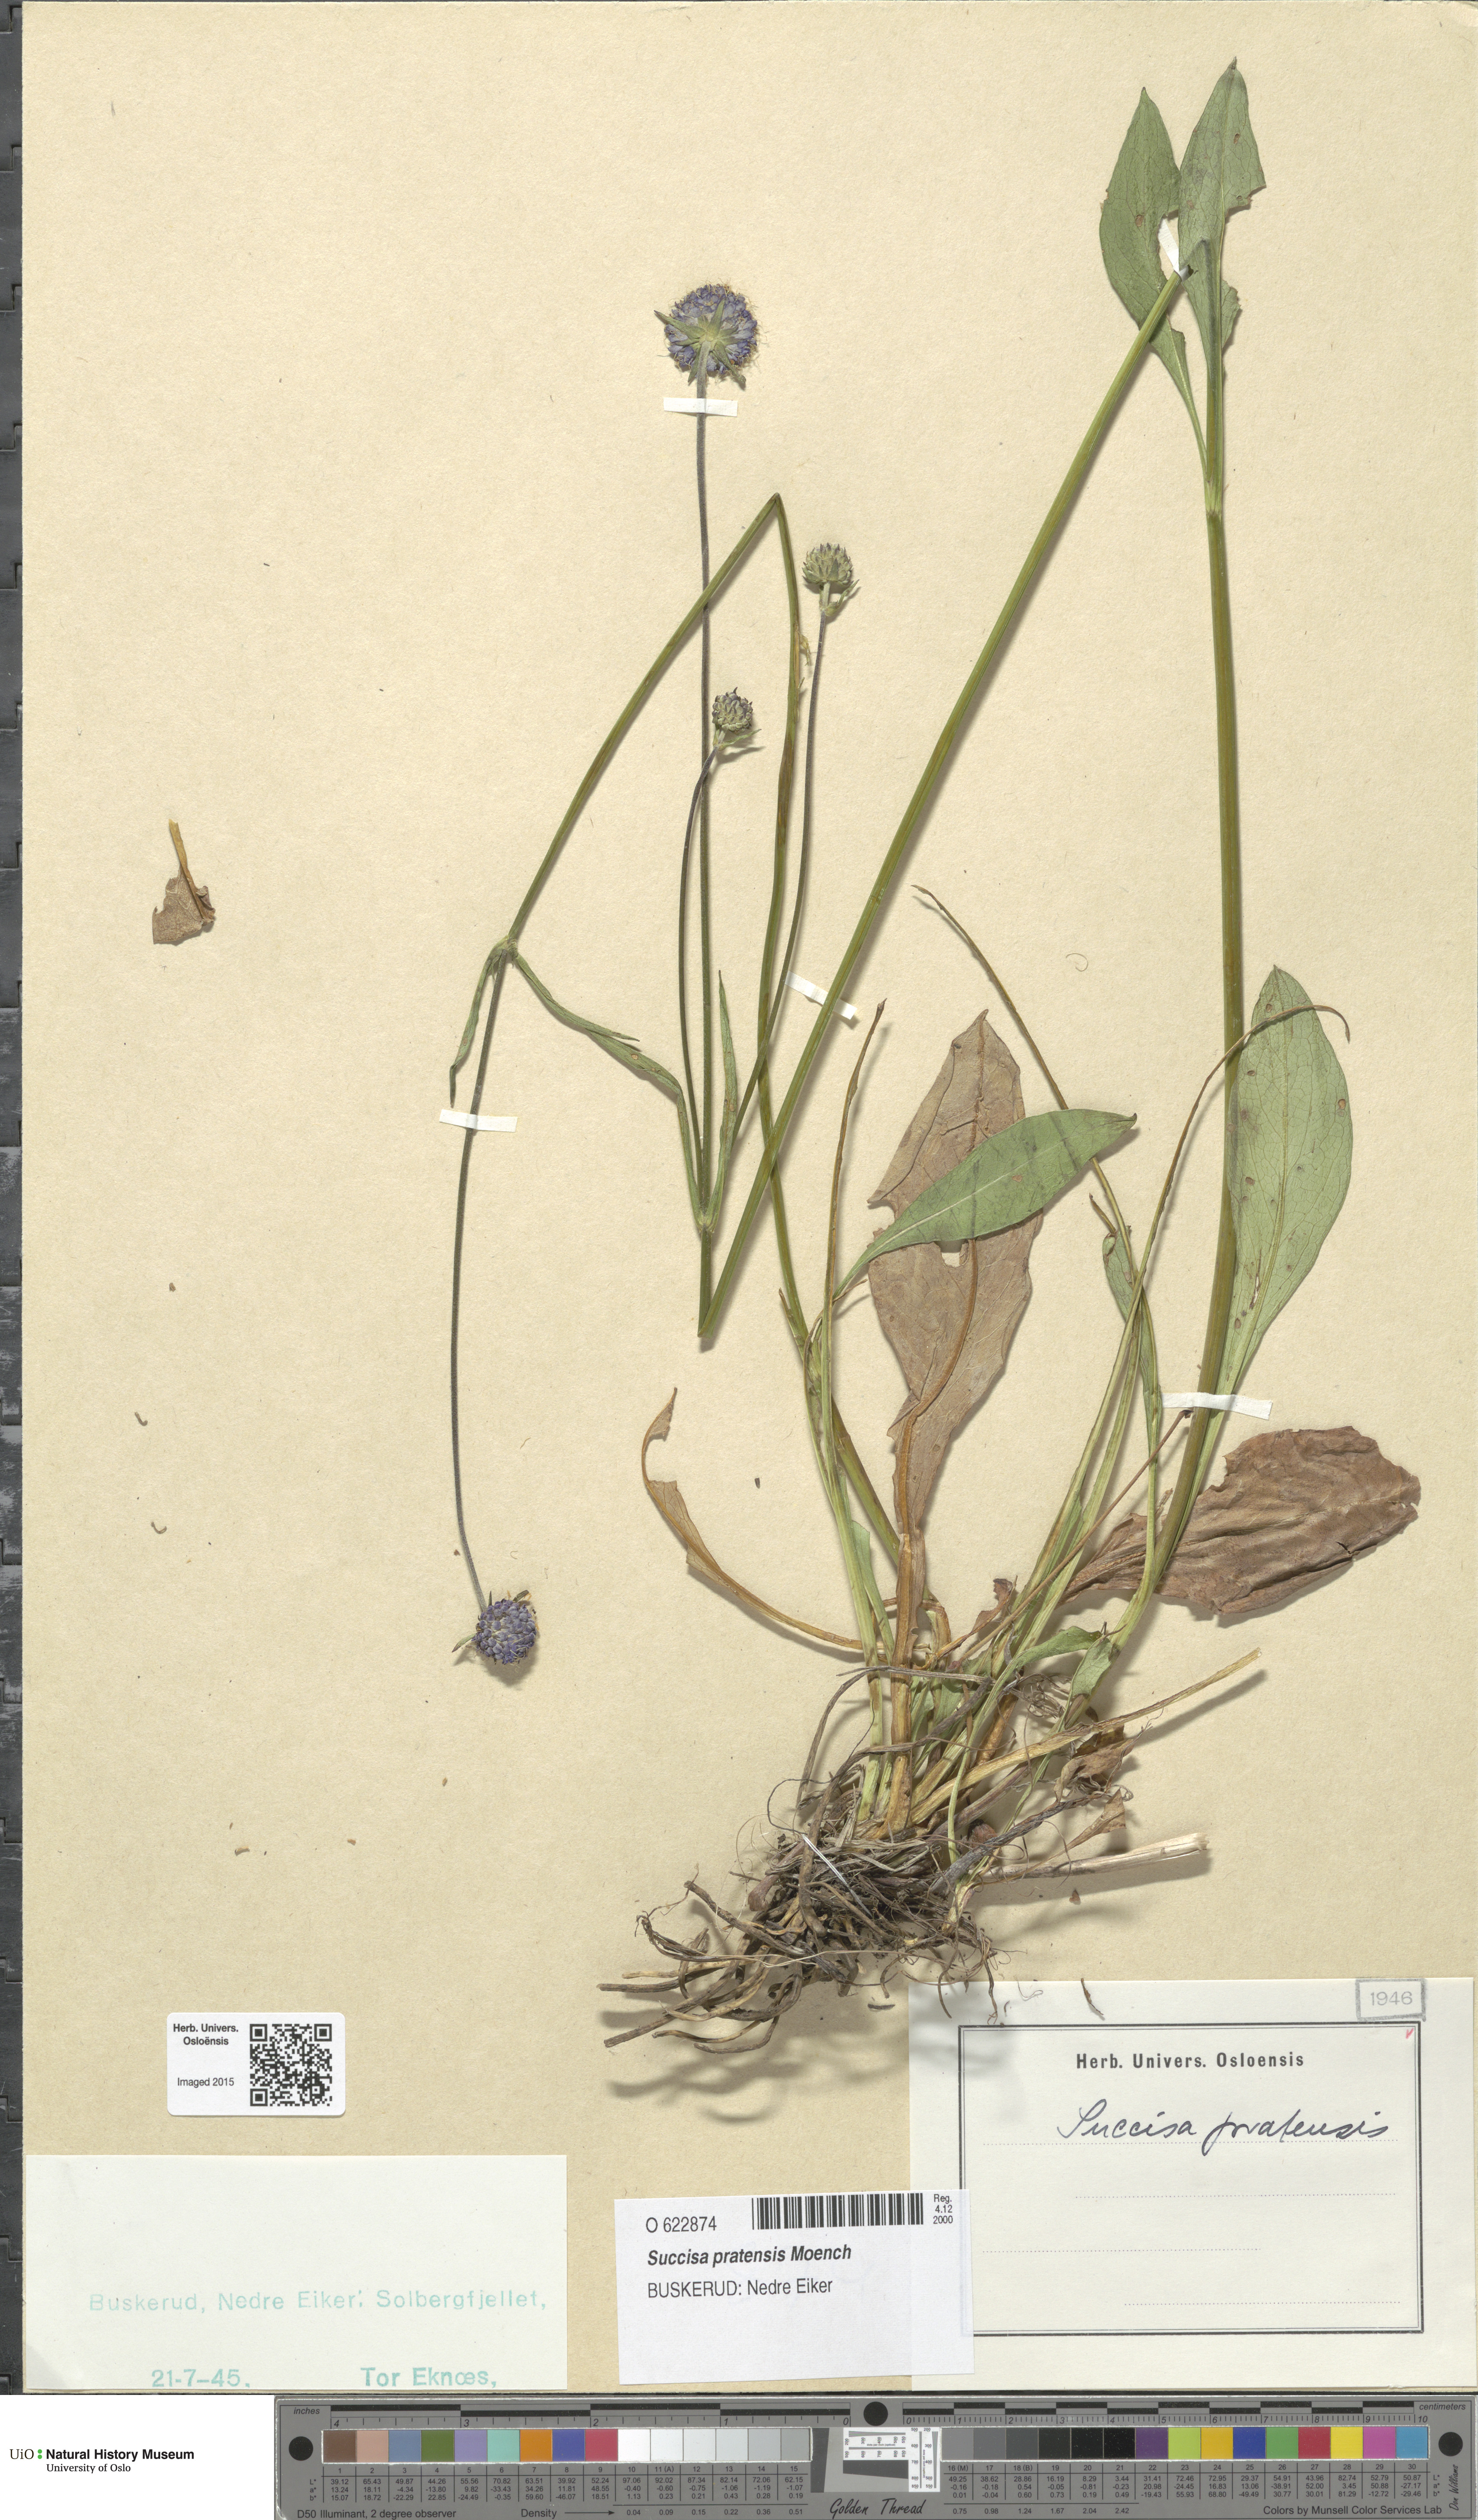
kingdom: Plantae
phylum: Tracheophyta
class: Magnoliopsida
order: Dipsacales
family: Caprifoliaceae
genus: Succisa
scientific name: Succisa pratensis
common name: Devil's-bit
